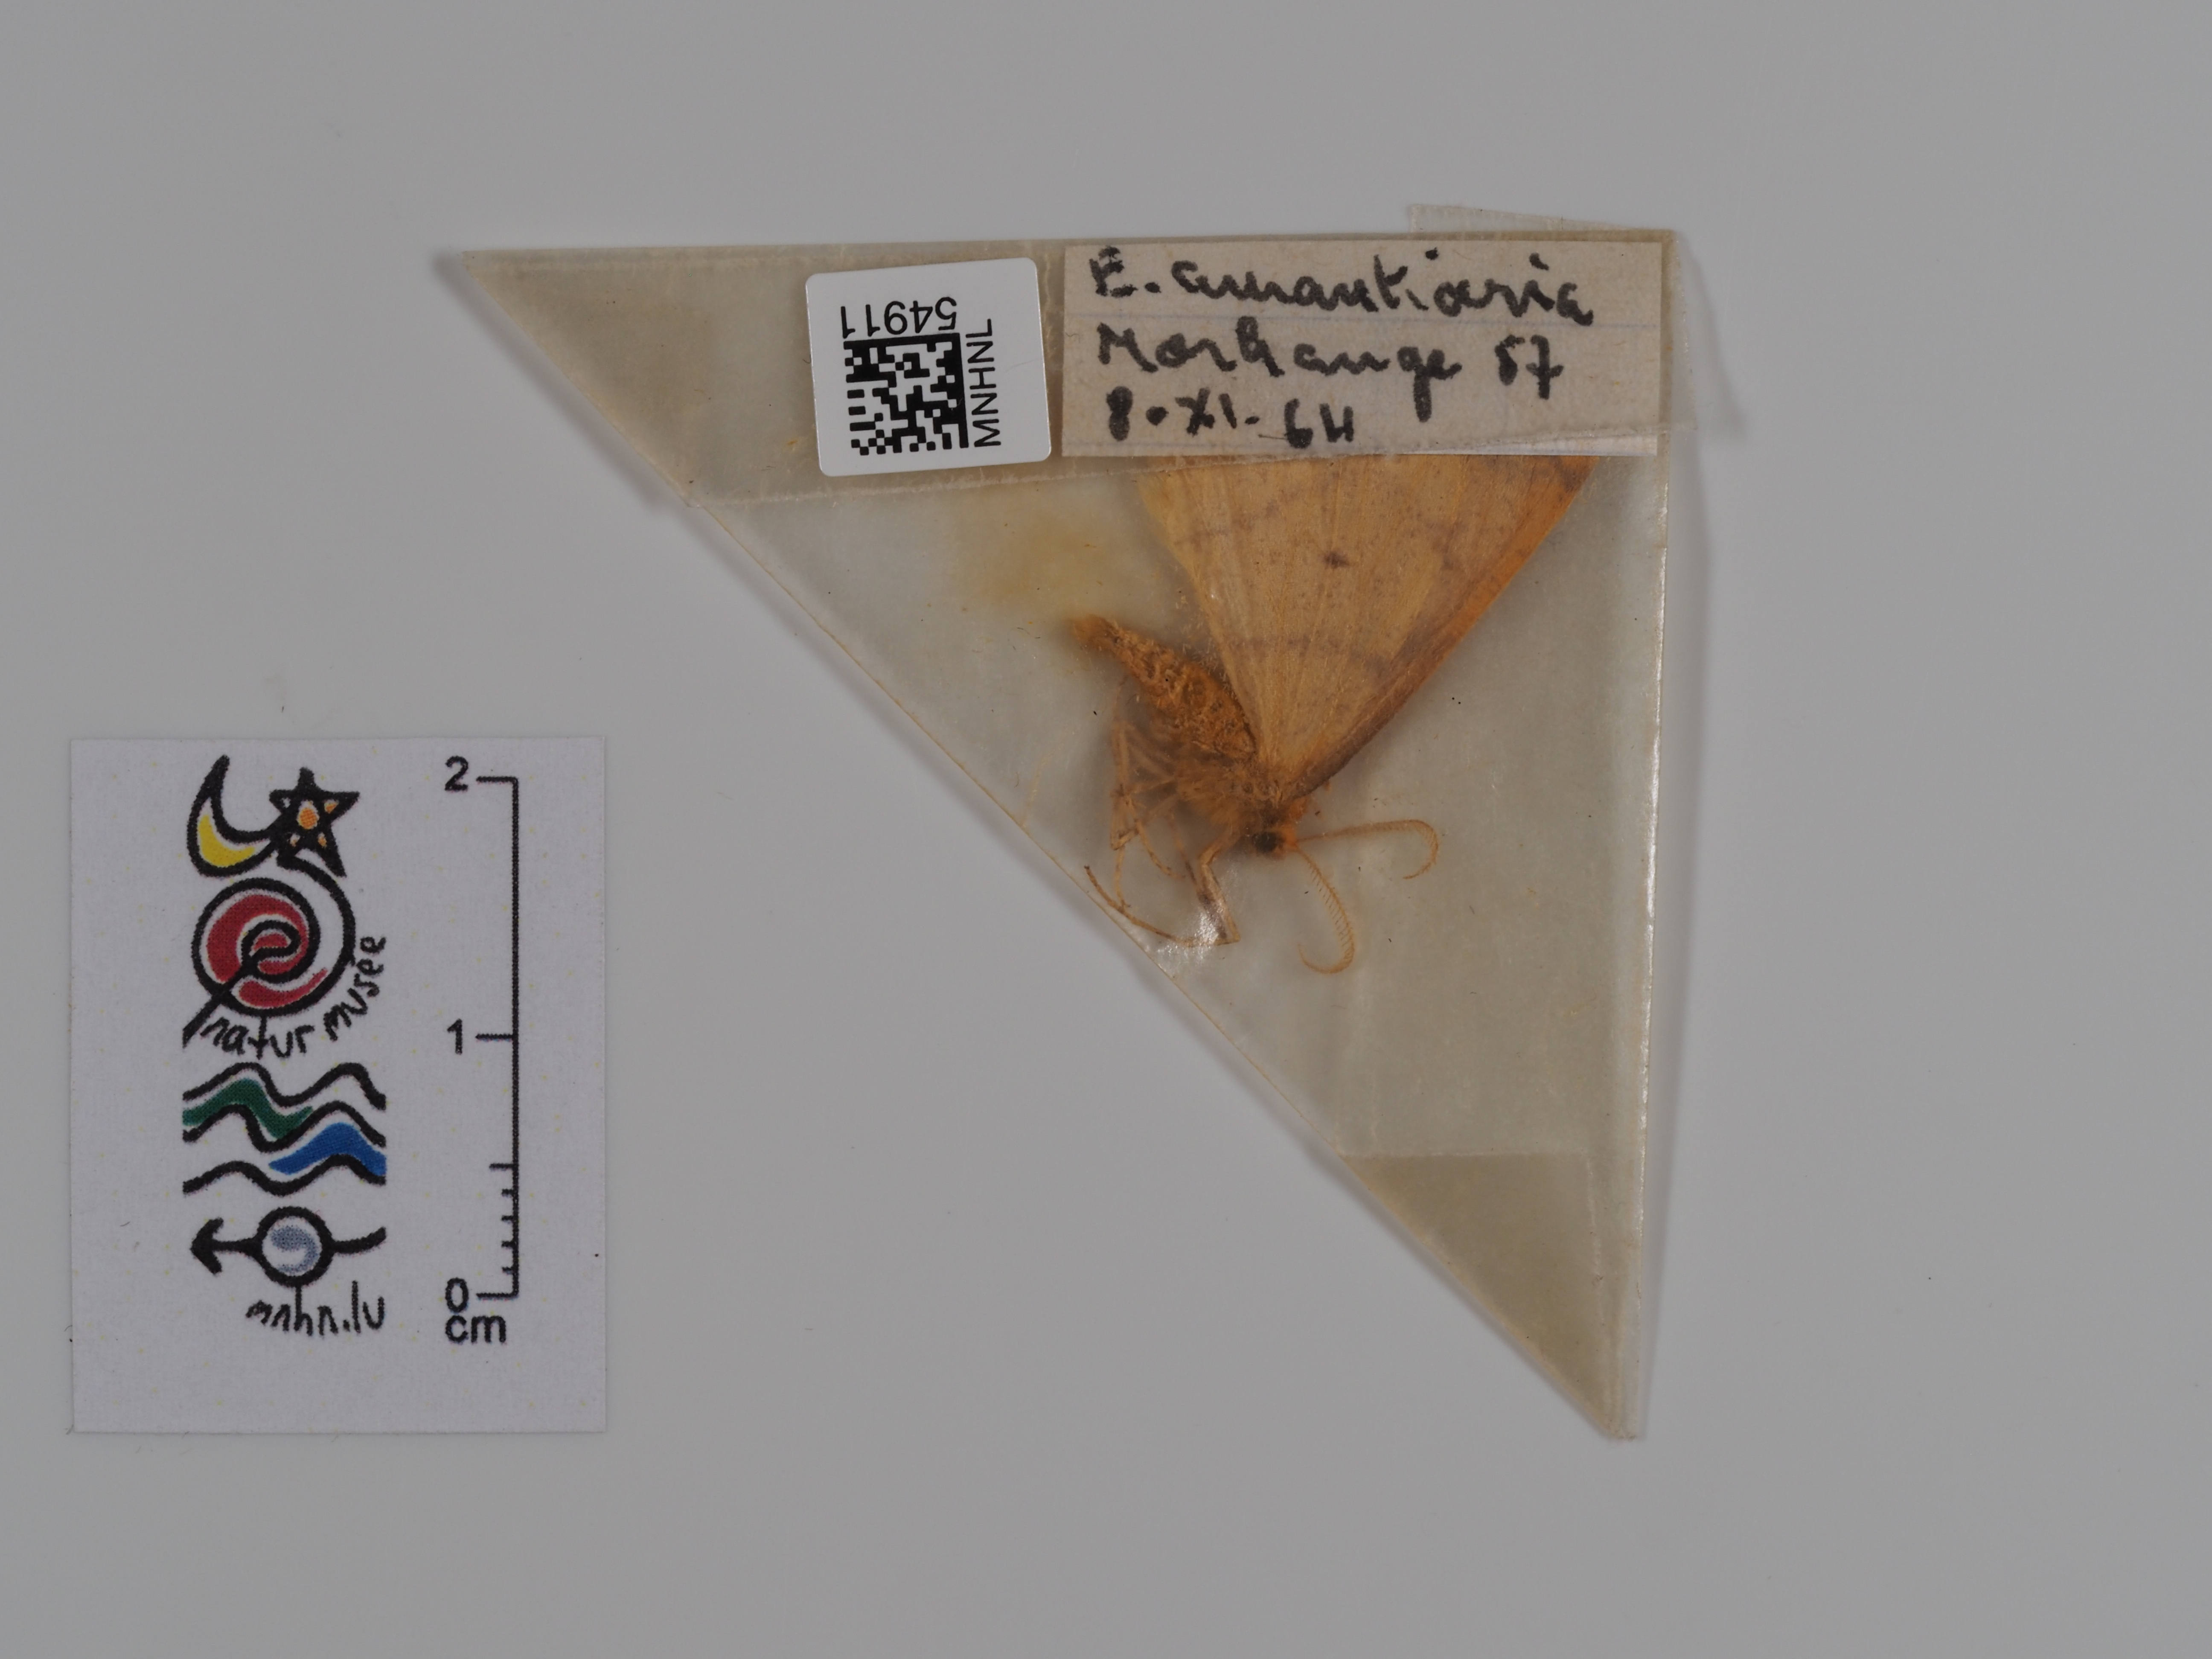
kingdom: Animalia
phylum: Arthropoda
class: Insecta
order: Lepidoptera
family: Geometridae
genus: Erannis
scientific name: Erannis
